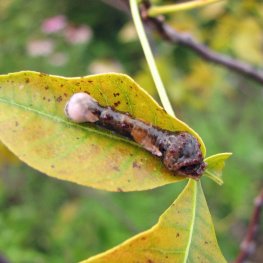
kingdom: Animalia
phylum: Arthropoda
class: Insecta
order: Lepidoptera
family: Papilionidae
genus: Papilio
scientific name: Papilio cresphontes
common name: Eastern Giant Swallowtail
